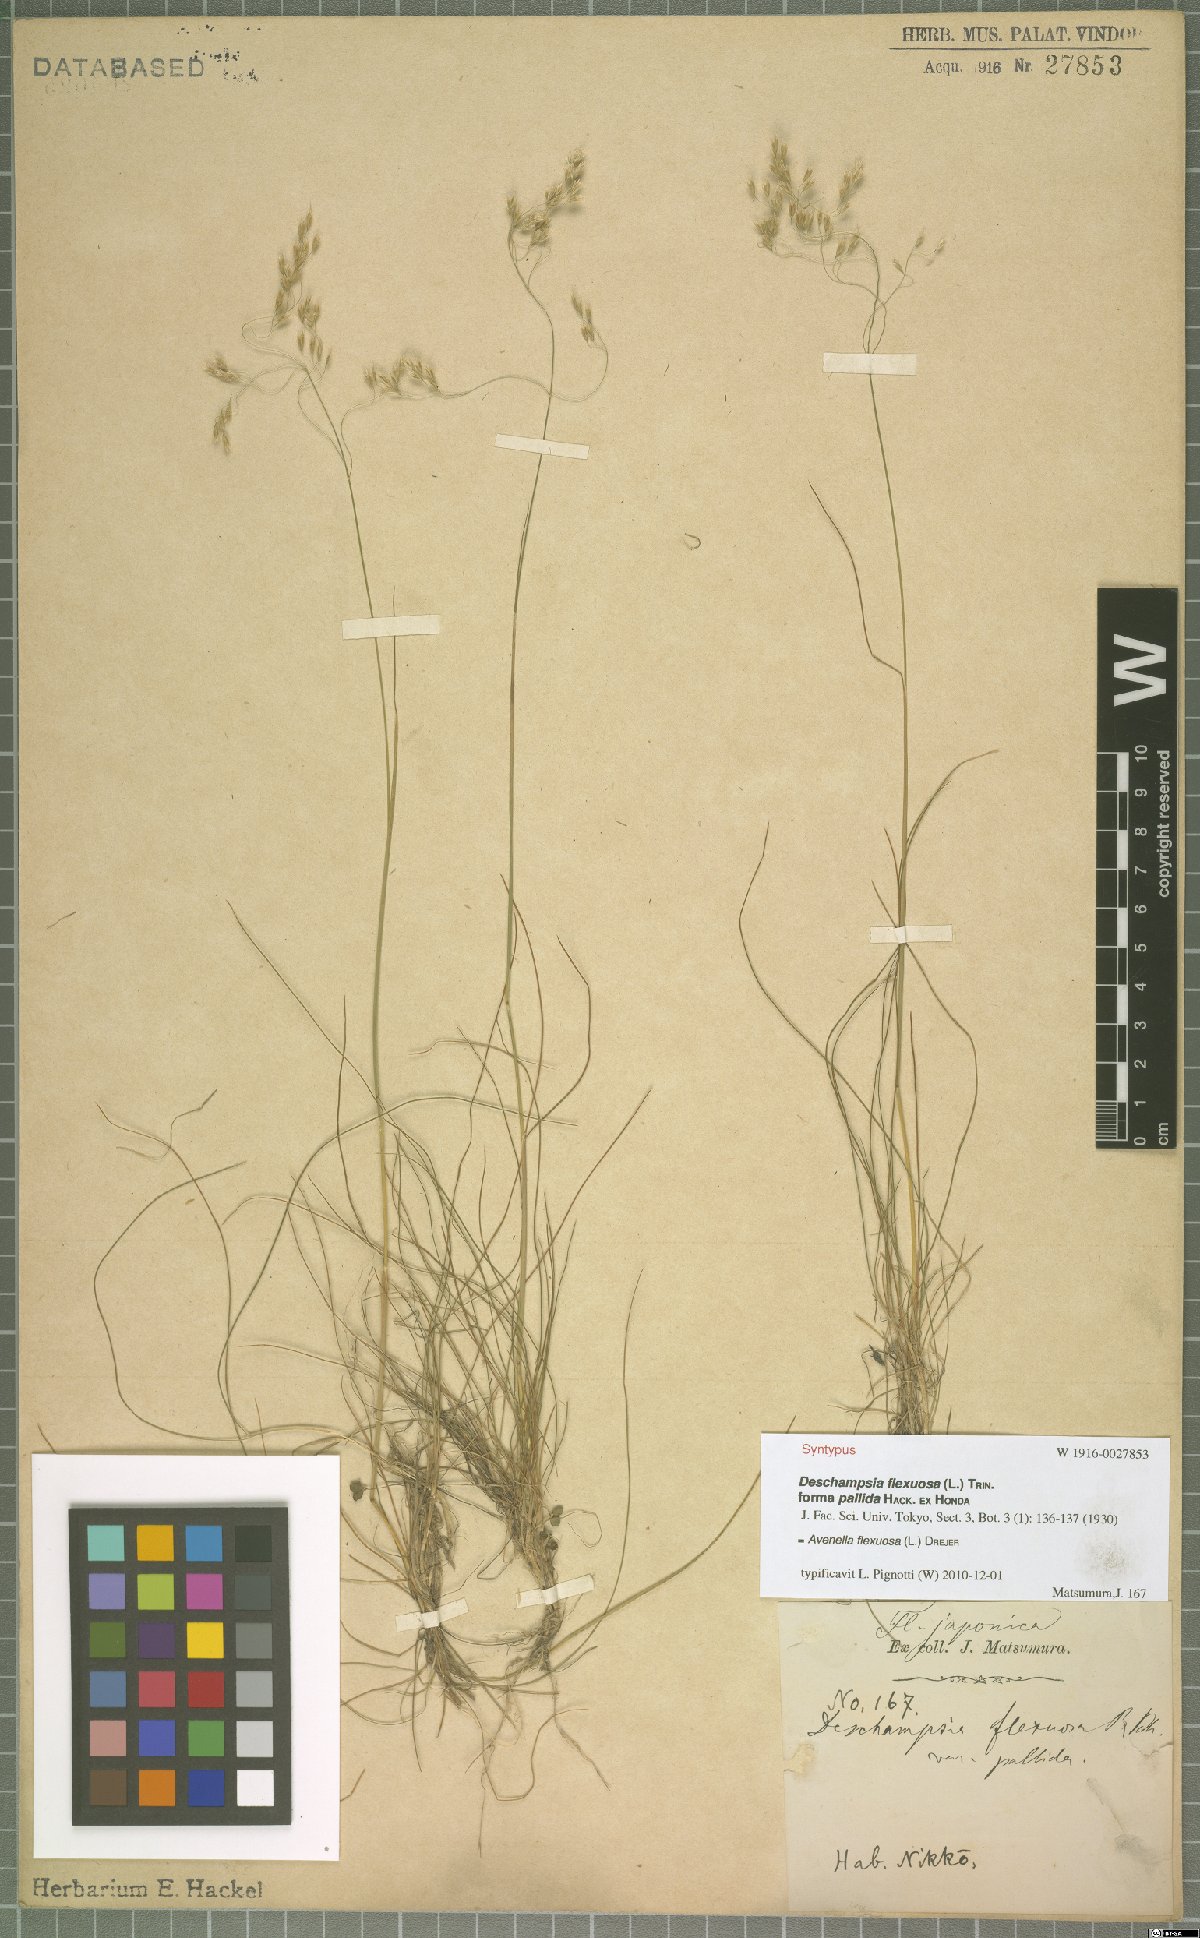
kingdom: Plantae
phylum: Tracheophyta
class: Liliopsida
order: Poales
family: Poaceae
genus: Avenella
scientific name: Avenella flexuosa
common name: Wavy hairgrass
